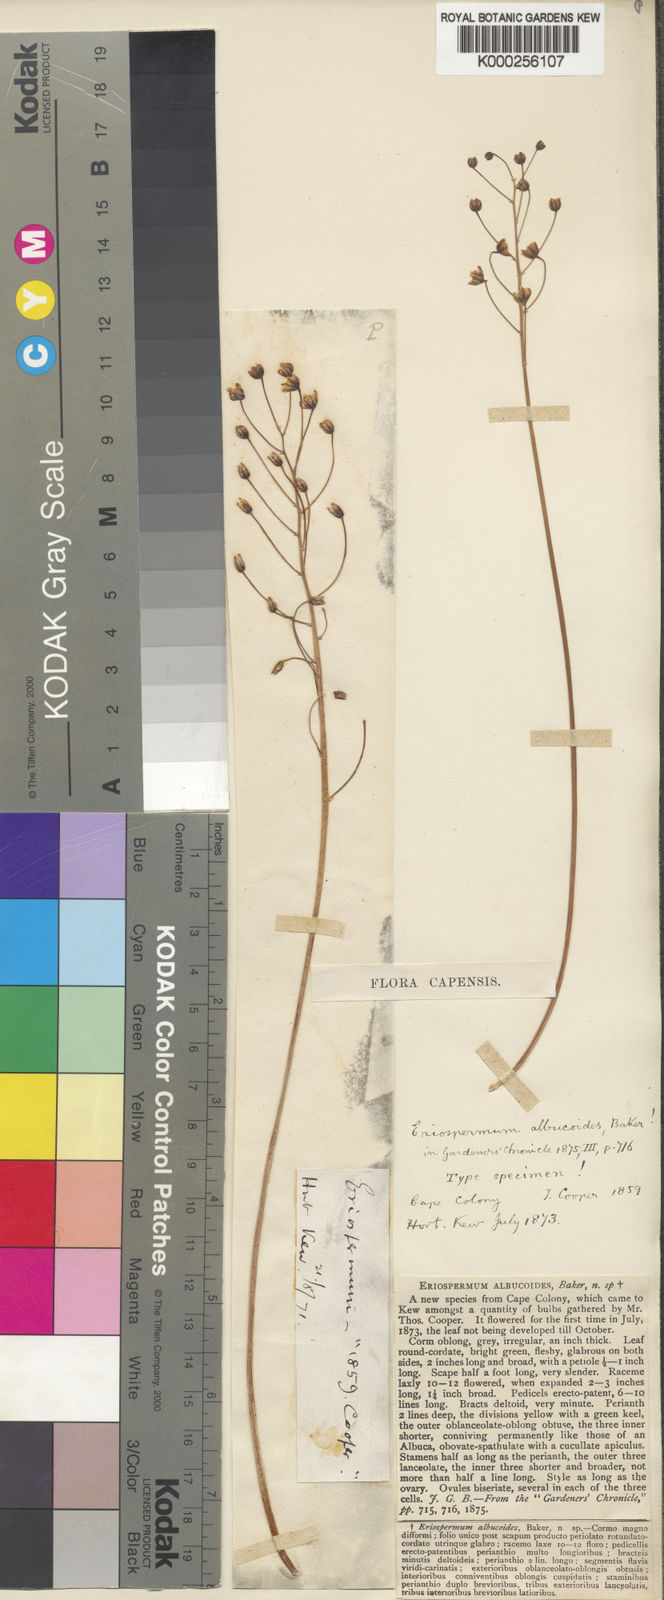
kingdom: Plantae
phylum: Tracheophyta
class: Liliopsida
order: Asparagales
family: Asparagaceae
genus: Eriospermum
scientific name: Eriospermum
